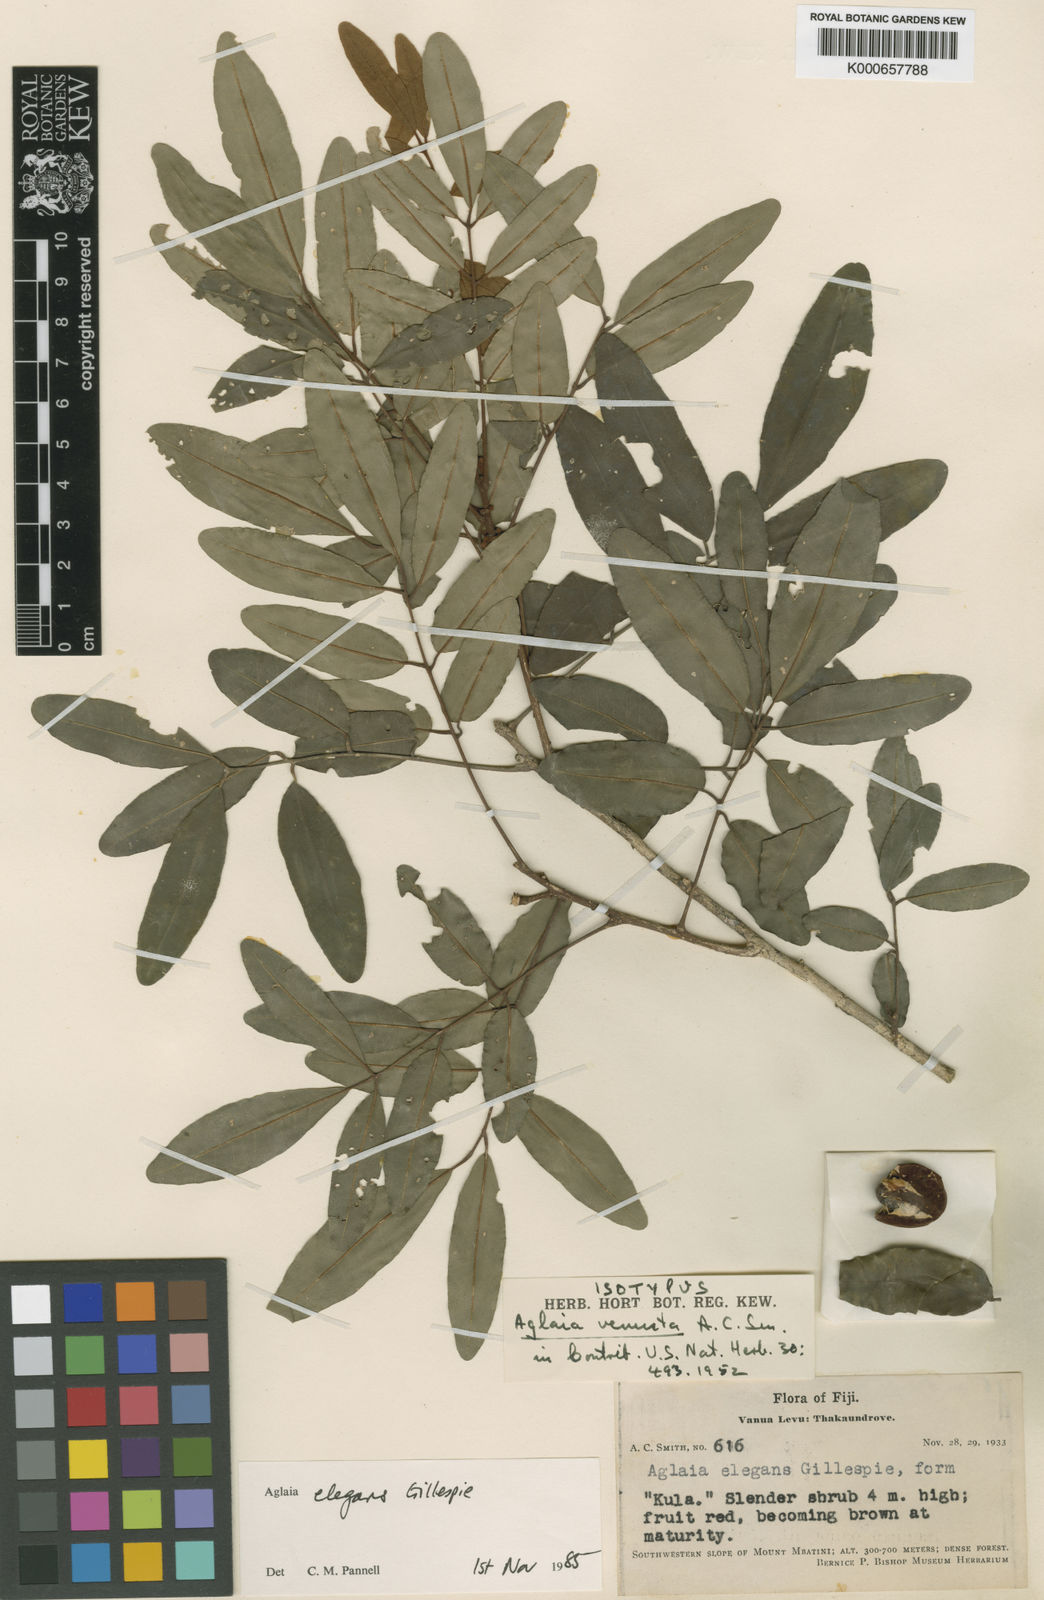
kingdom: Plantae
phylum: Tracheophyta
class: Magnoliopsida
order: Sapindales
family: Meliaceae
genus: Aglaia
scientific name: Aglaia basiphylla
